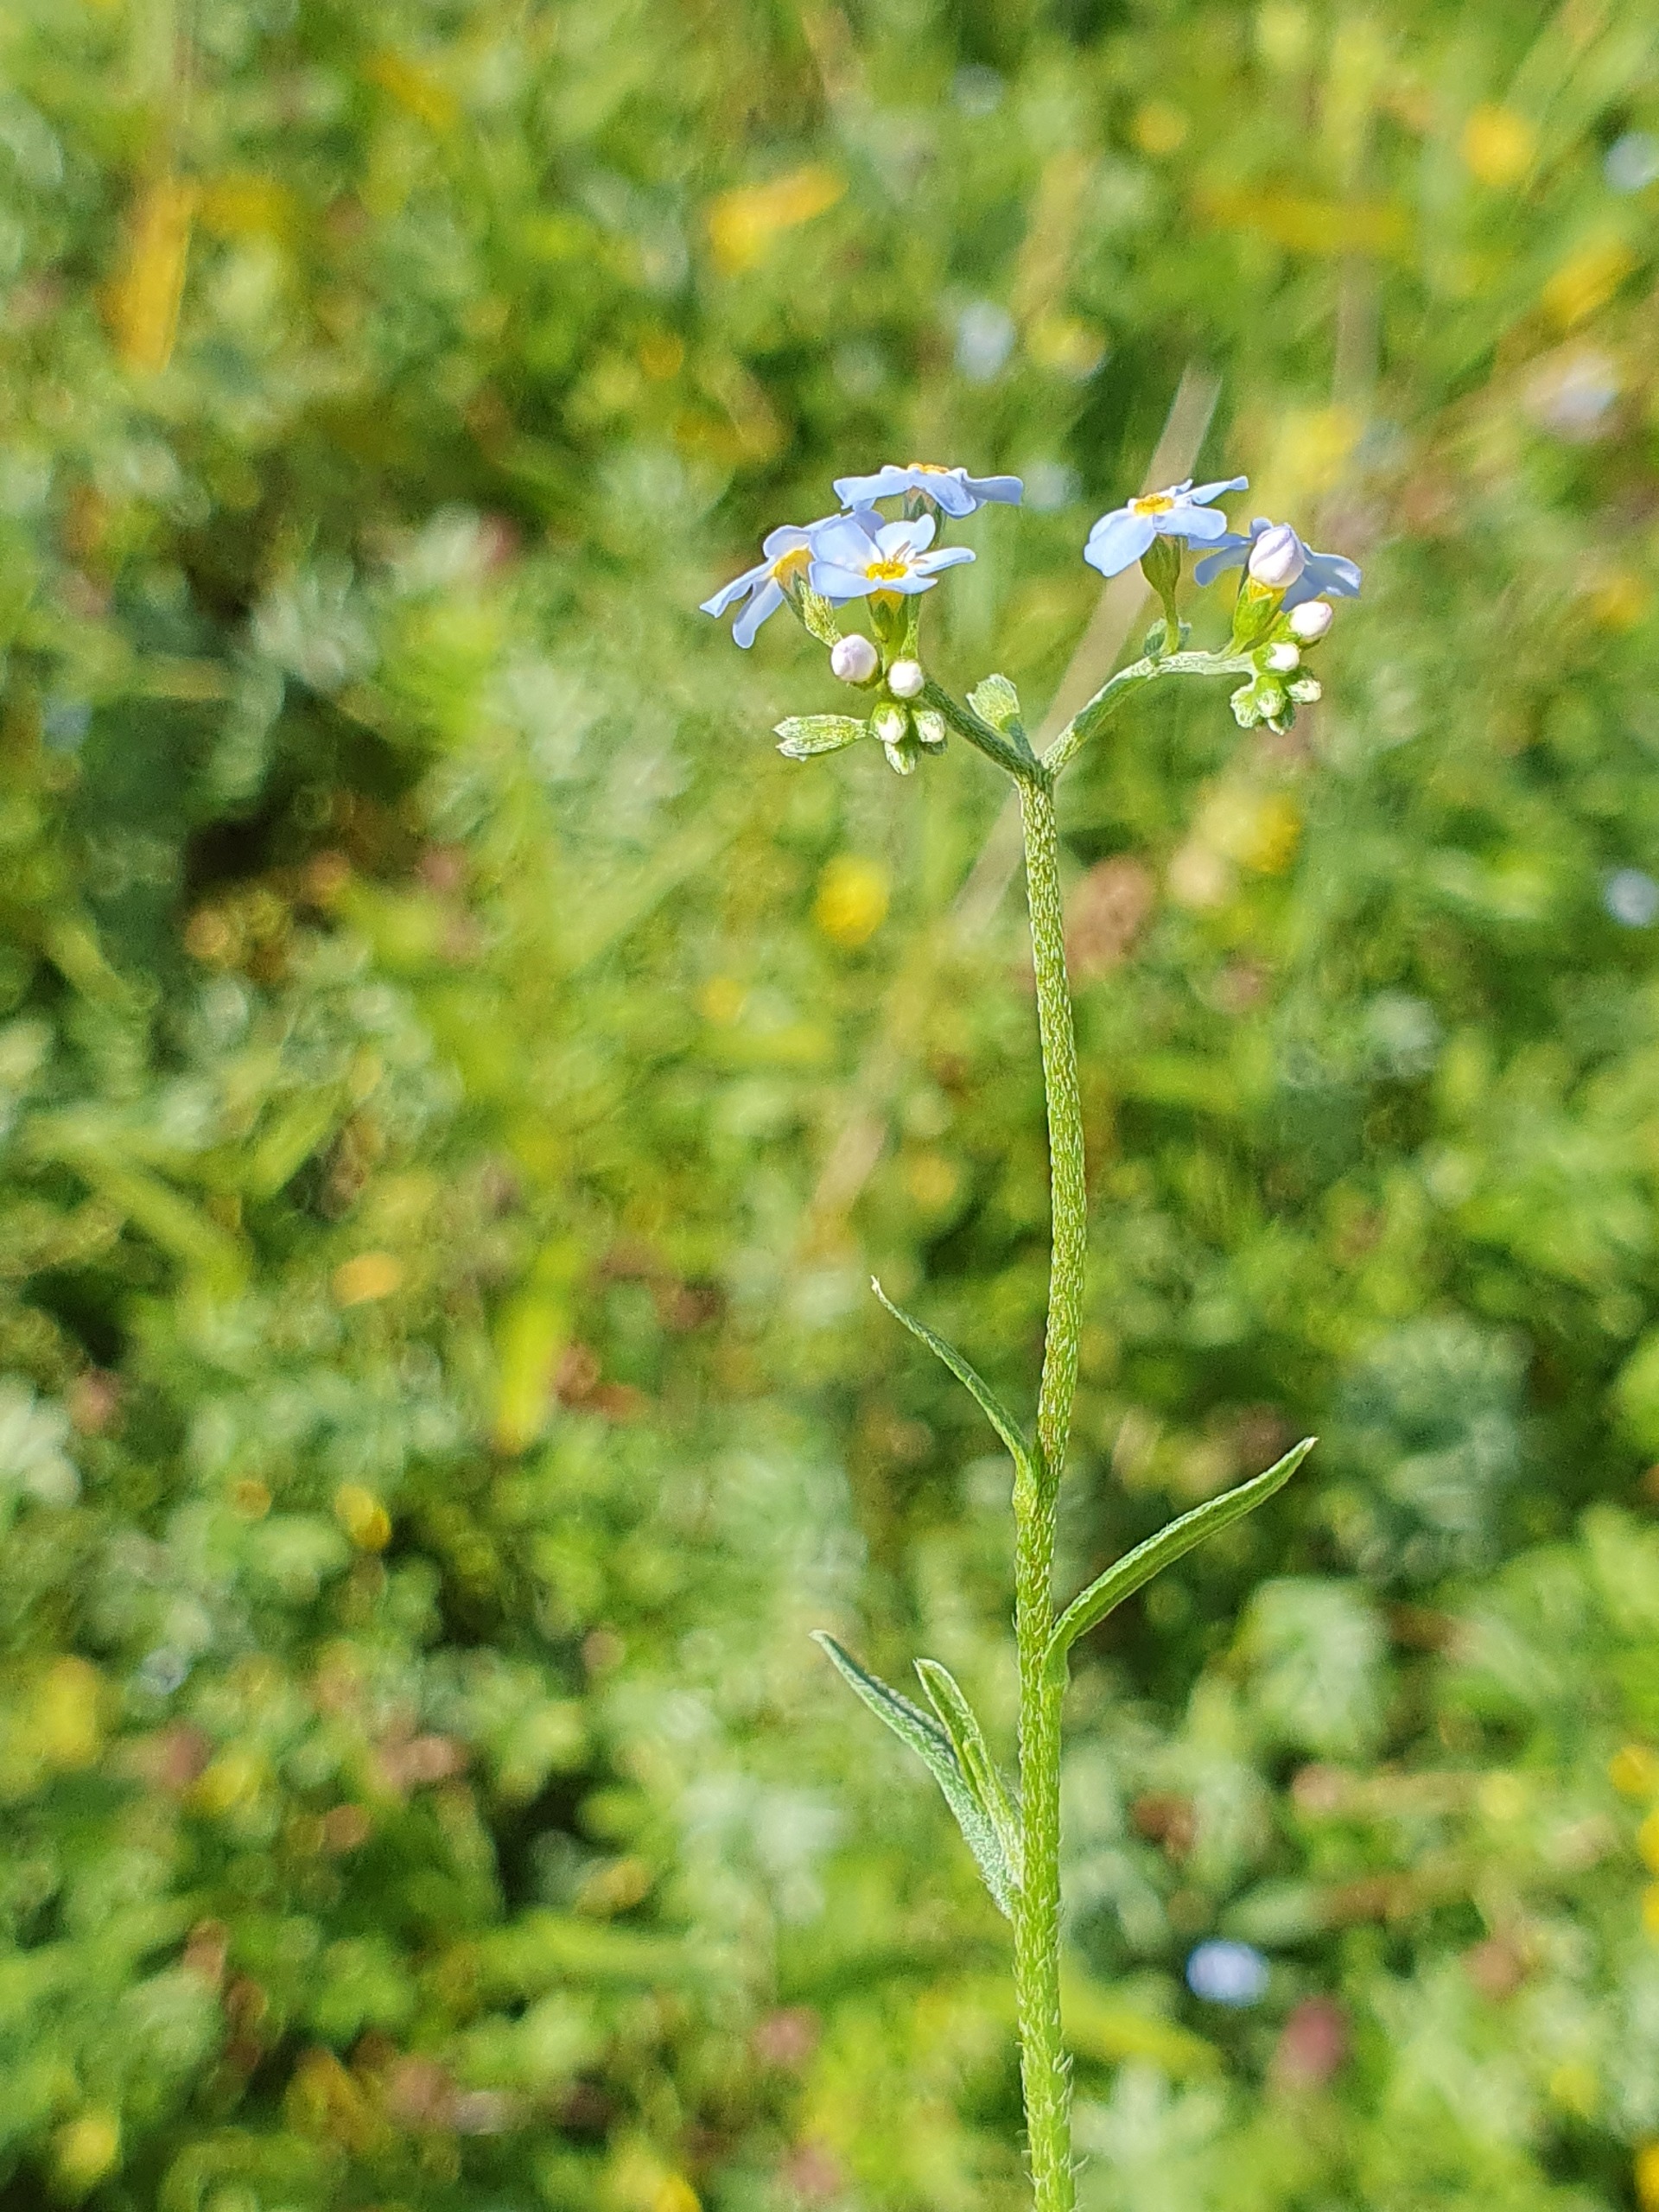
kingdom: Plantae
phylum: Tracheophyta
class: Magnoliopsida
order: Boraginales
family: Boraginaceae
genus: Myosotis
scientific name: Myosotis scorpioides
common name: Eng-forglemmigej
